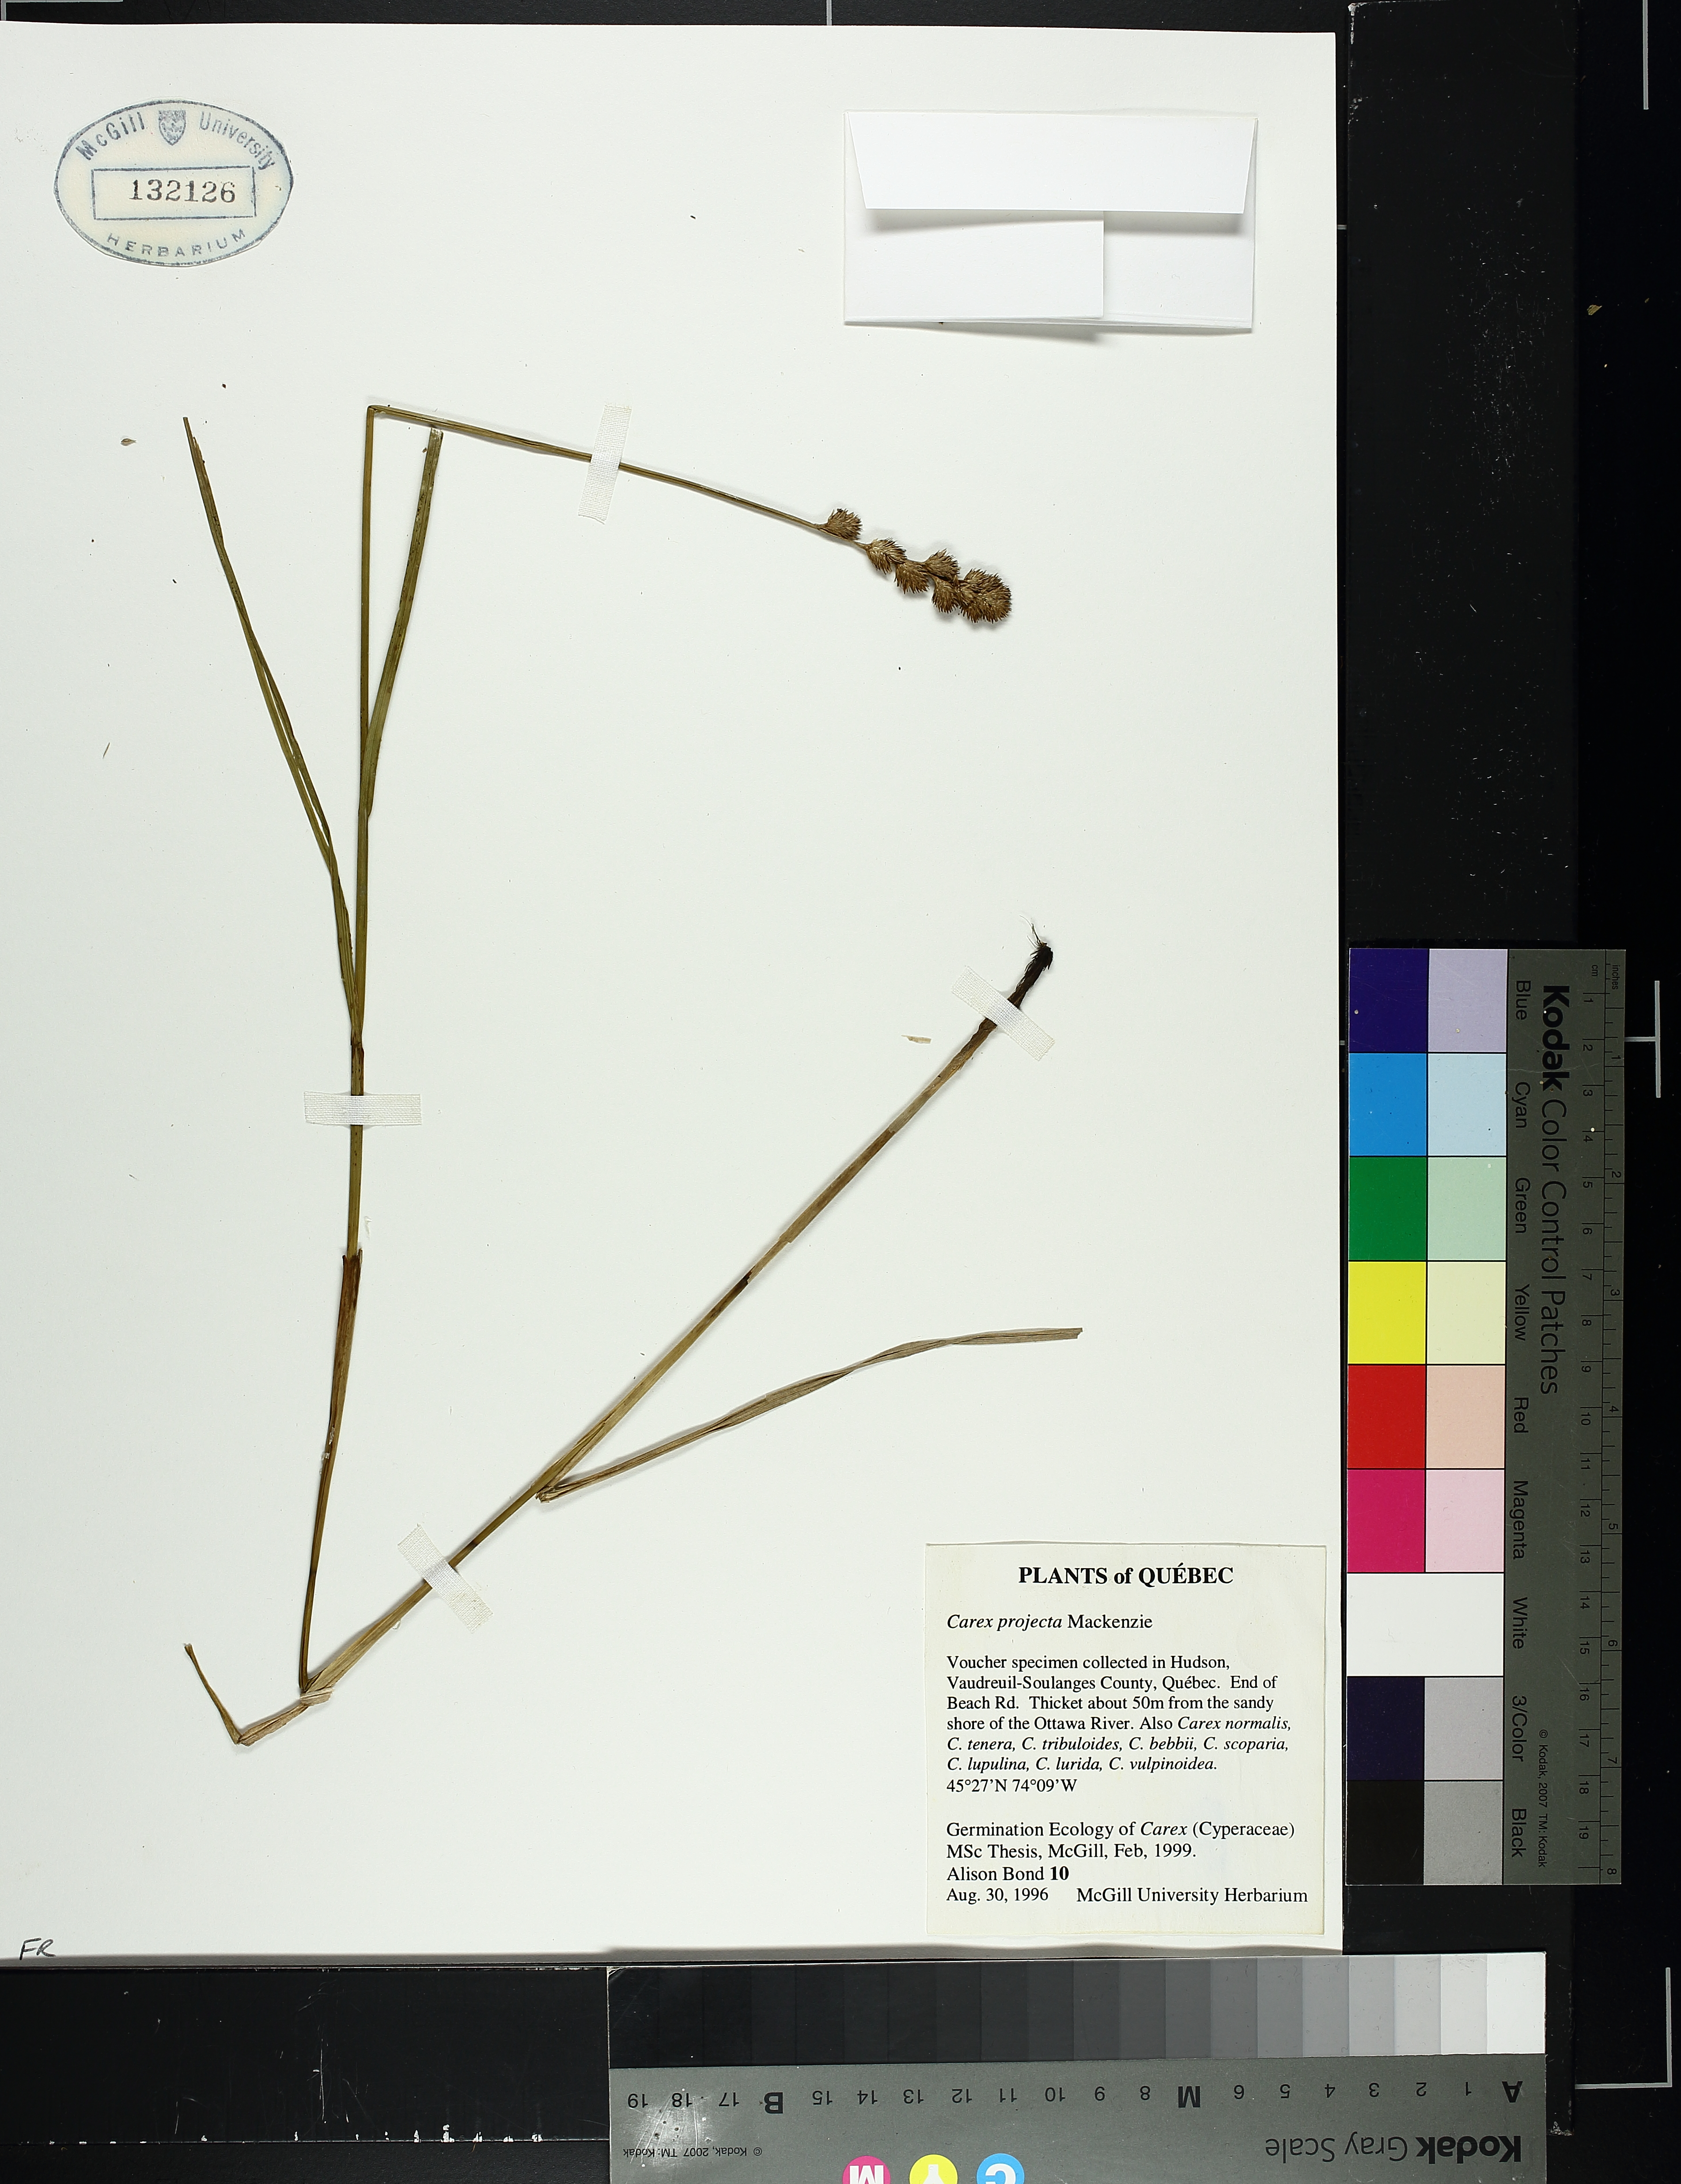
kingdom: Plantae
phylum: Tracheophyta
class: Liliopsida
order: Poales
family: Cyperaceae
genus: Carex
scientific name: Carex projecta
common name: Loose-headed oval sedge
